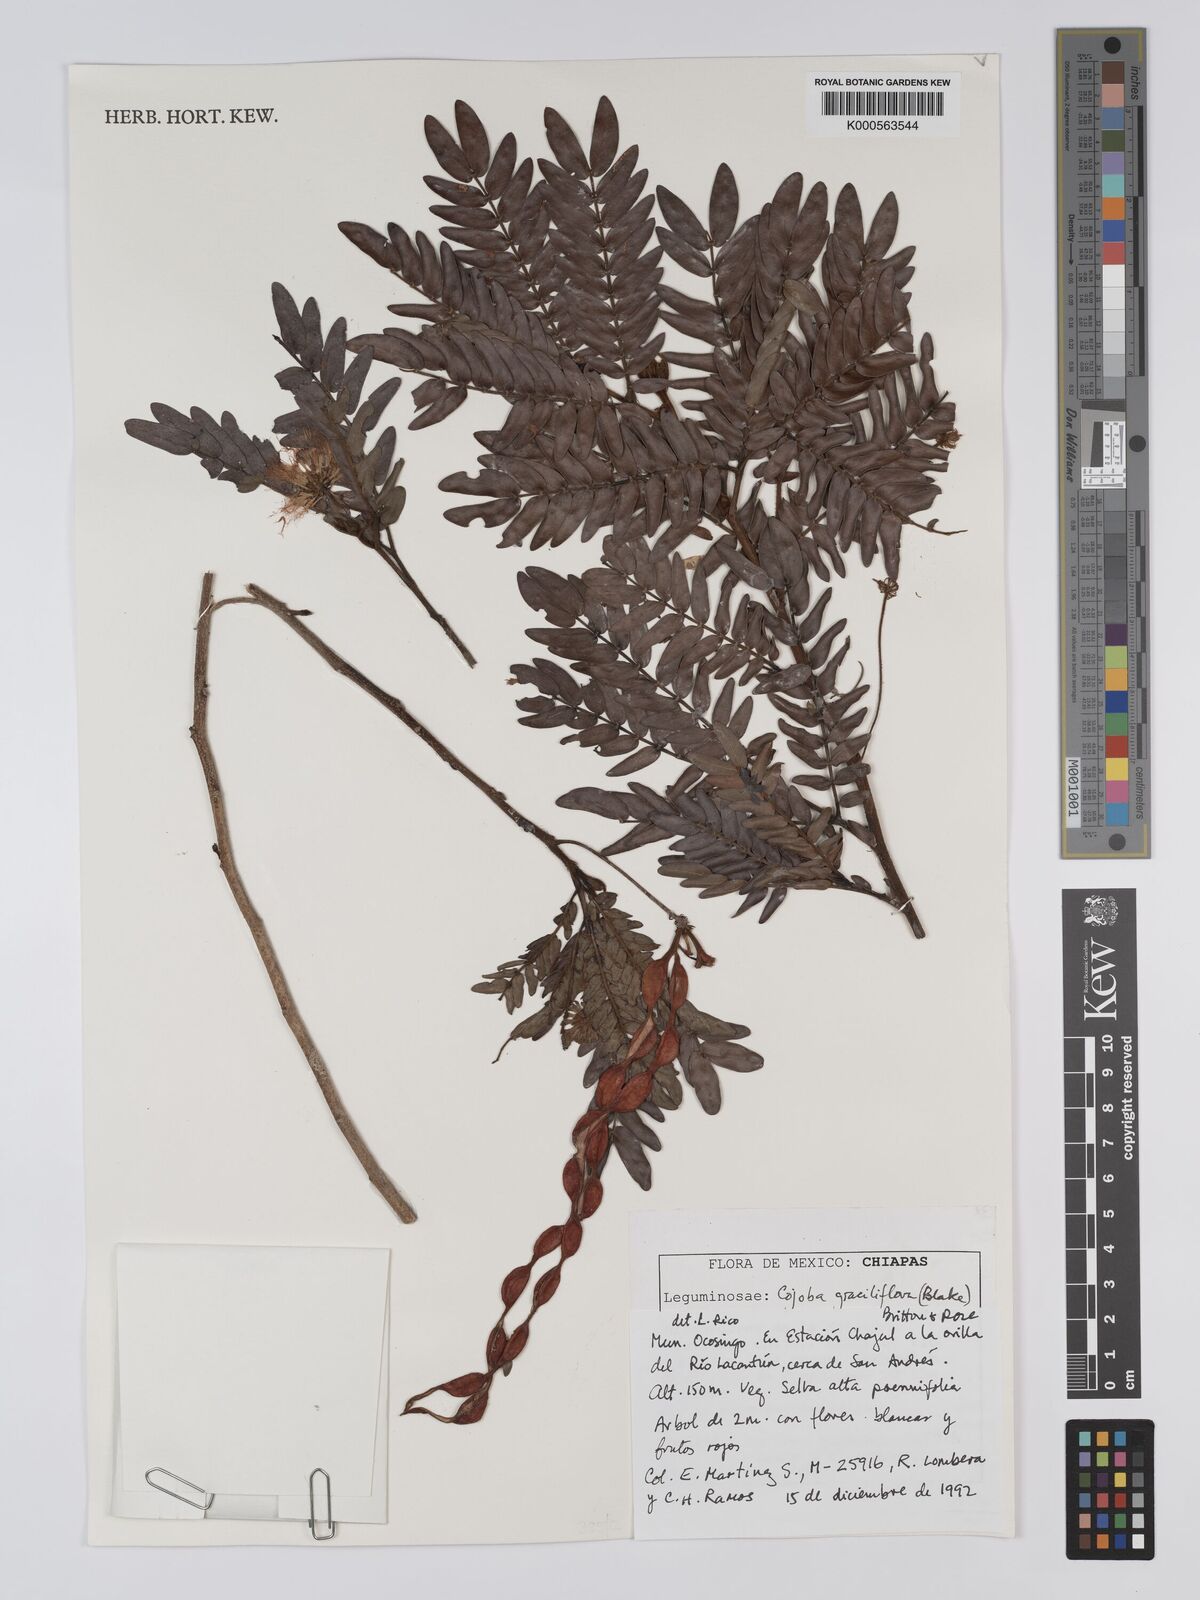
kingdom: Plantae
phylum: Tracheophyta
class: Magnoliopsida
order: Fabales
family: Fabaceae
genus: Cojoba
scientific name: Cojoba graciliflora
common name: Guadeloupe blackbead
